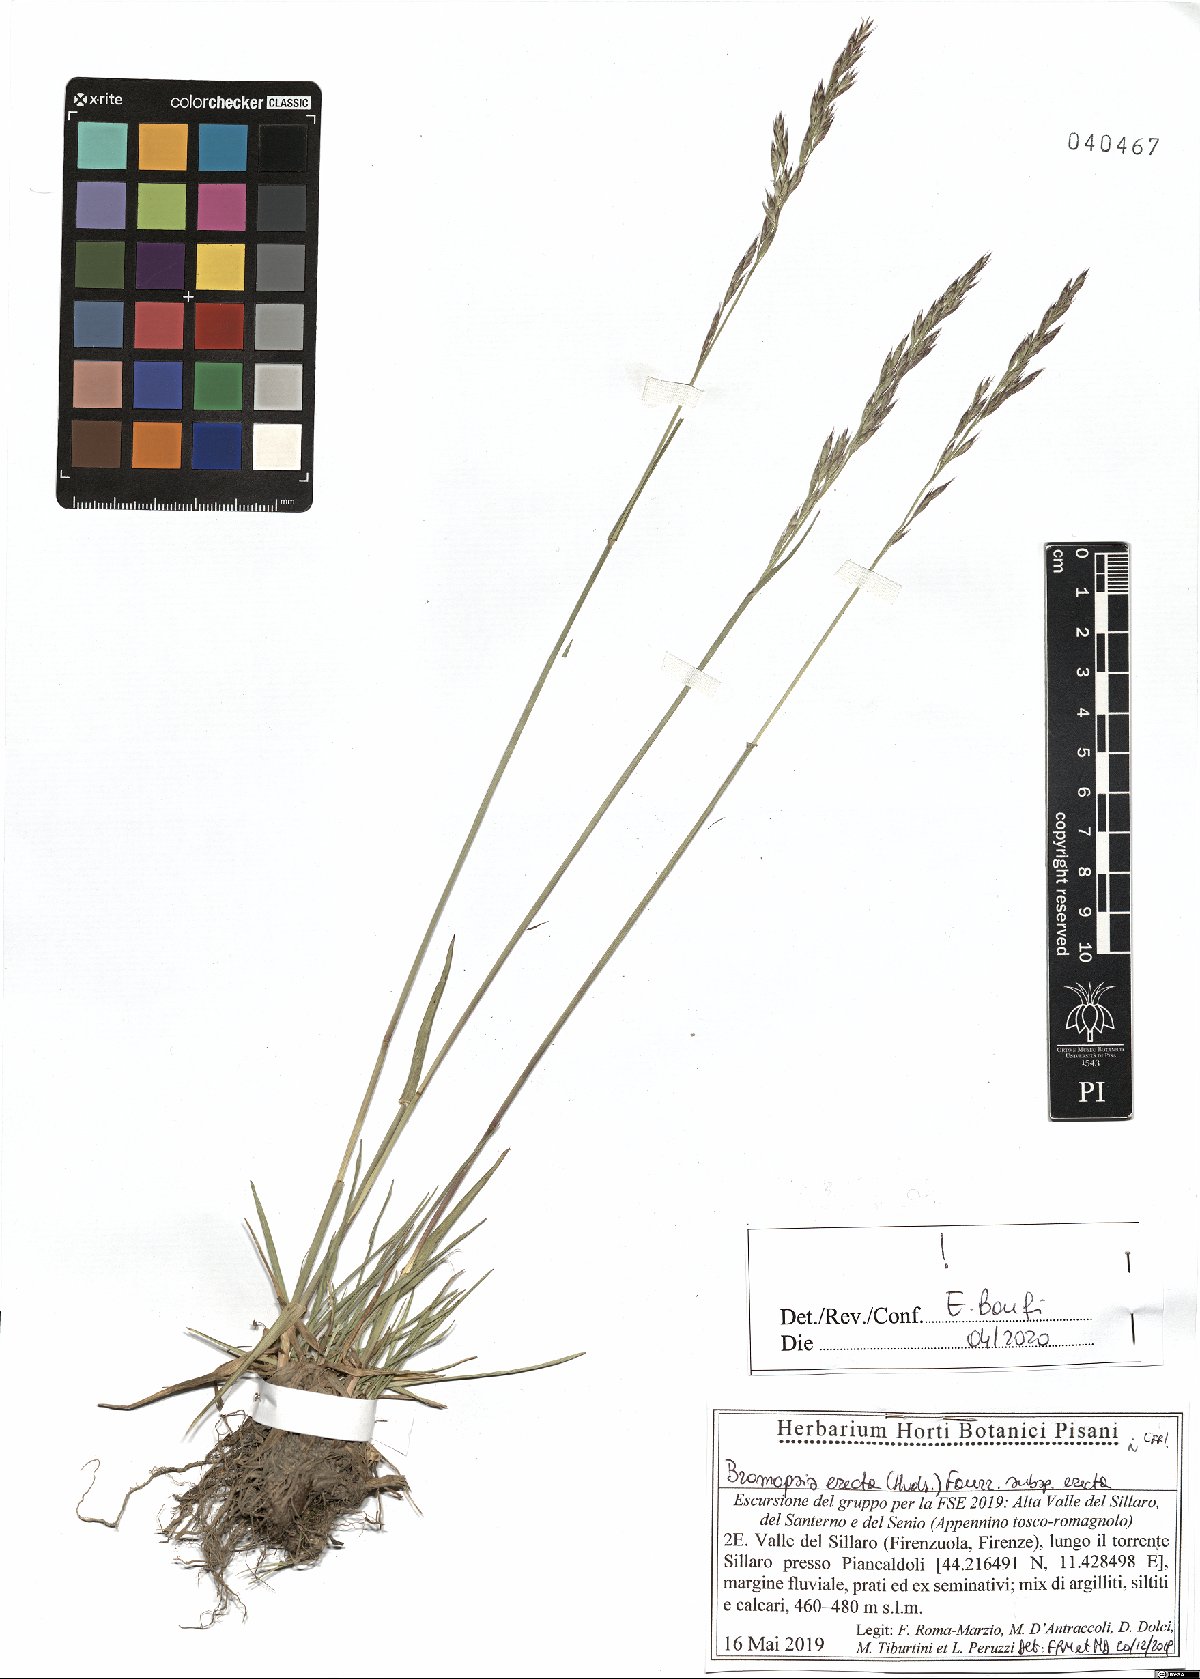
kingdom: Plantae
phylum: Tracheophyta
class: Liliopsida
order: Poales
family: Poaceae
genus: Bromus
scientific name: Bromus erectus
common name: Erect brome
